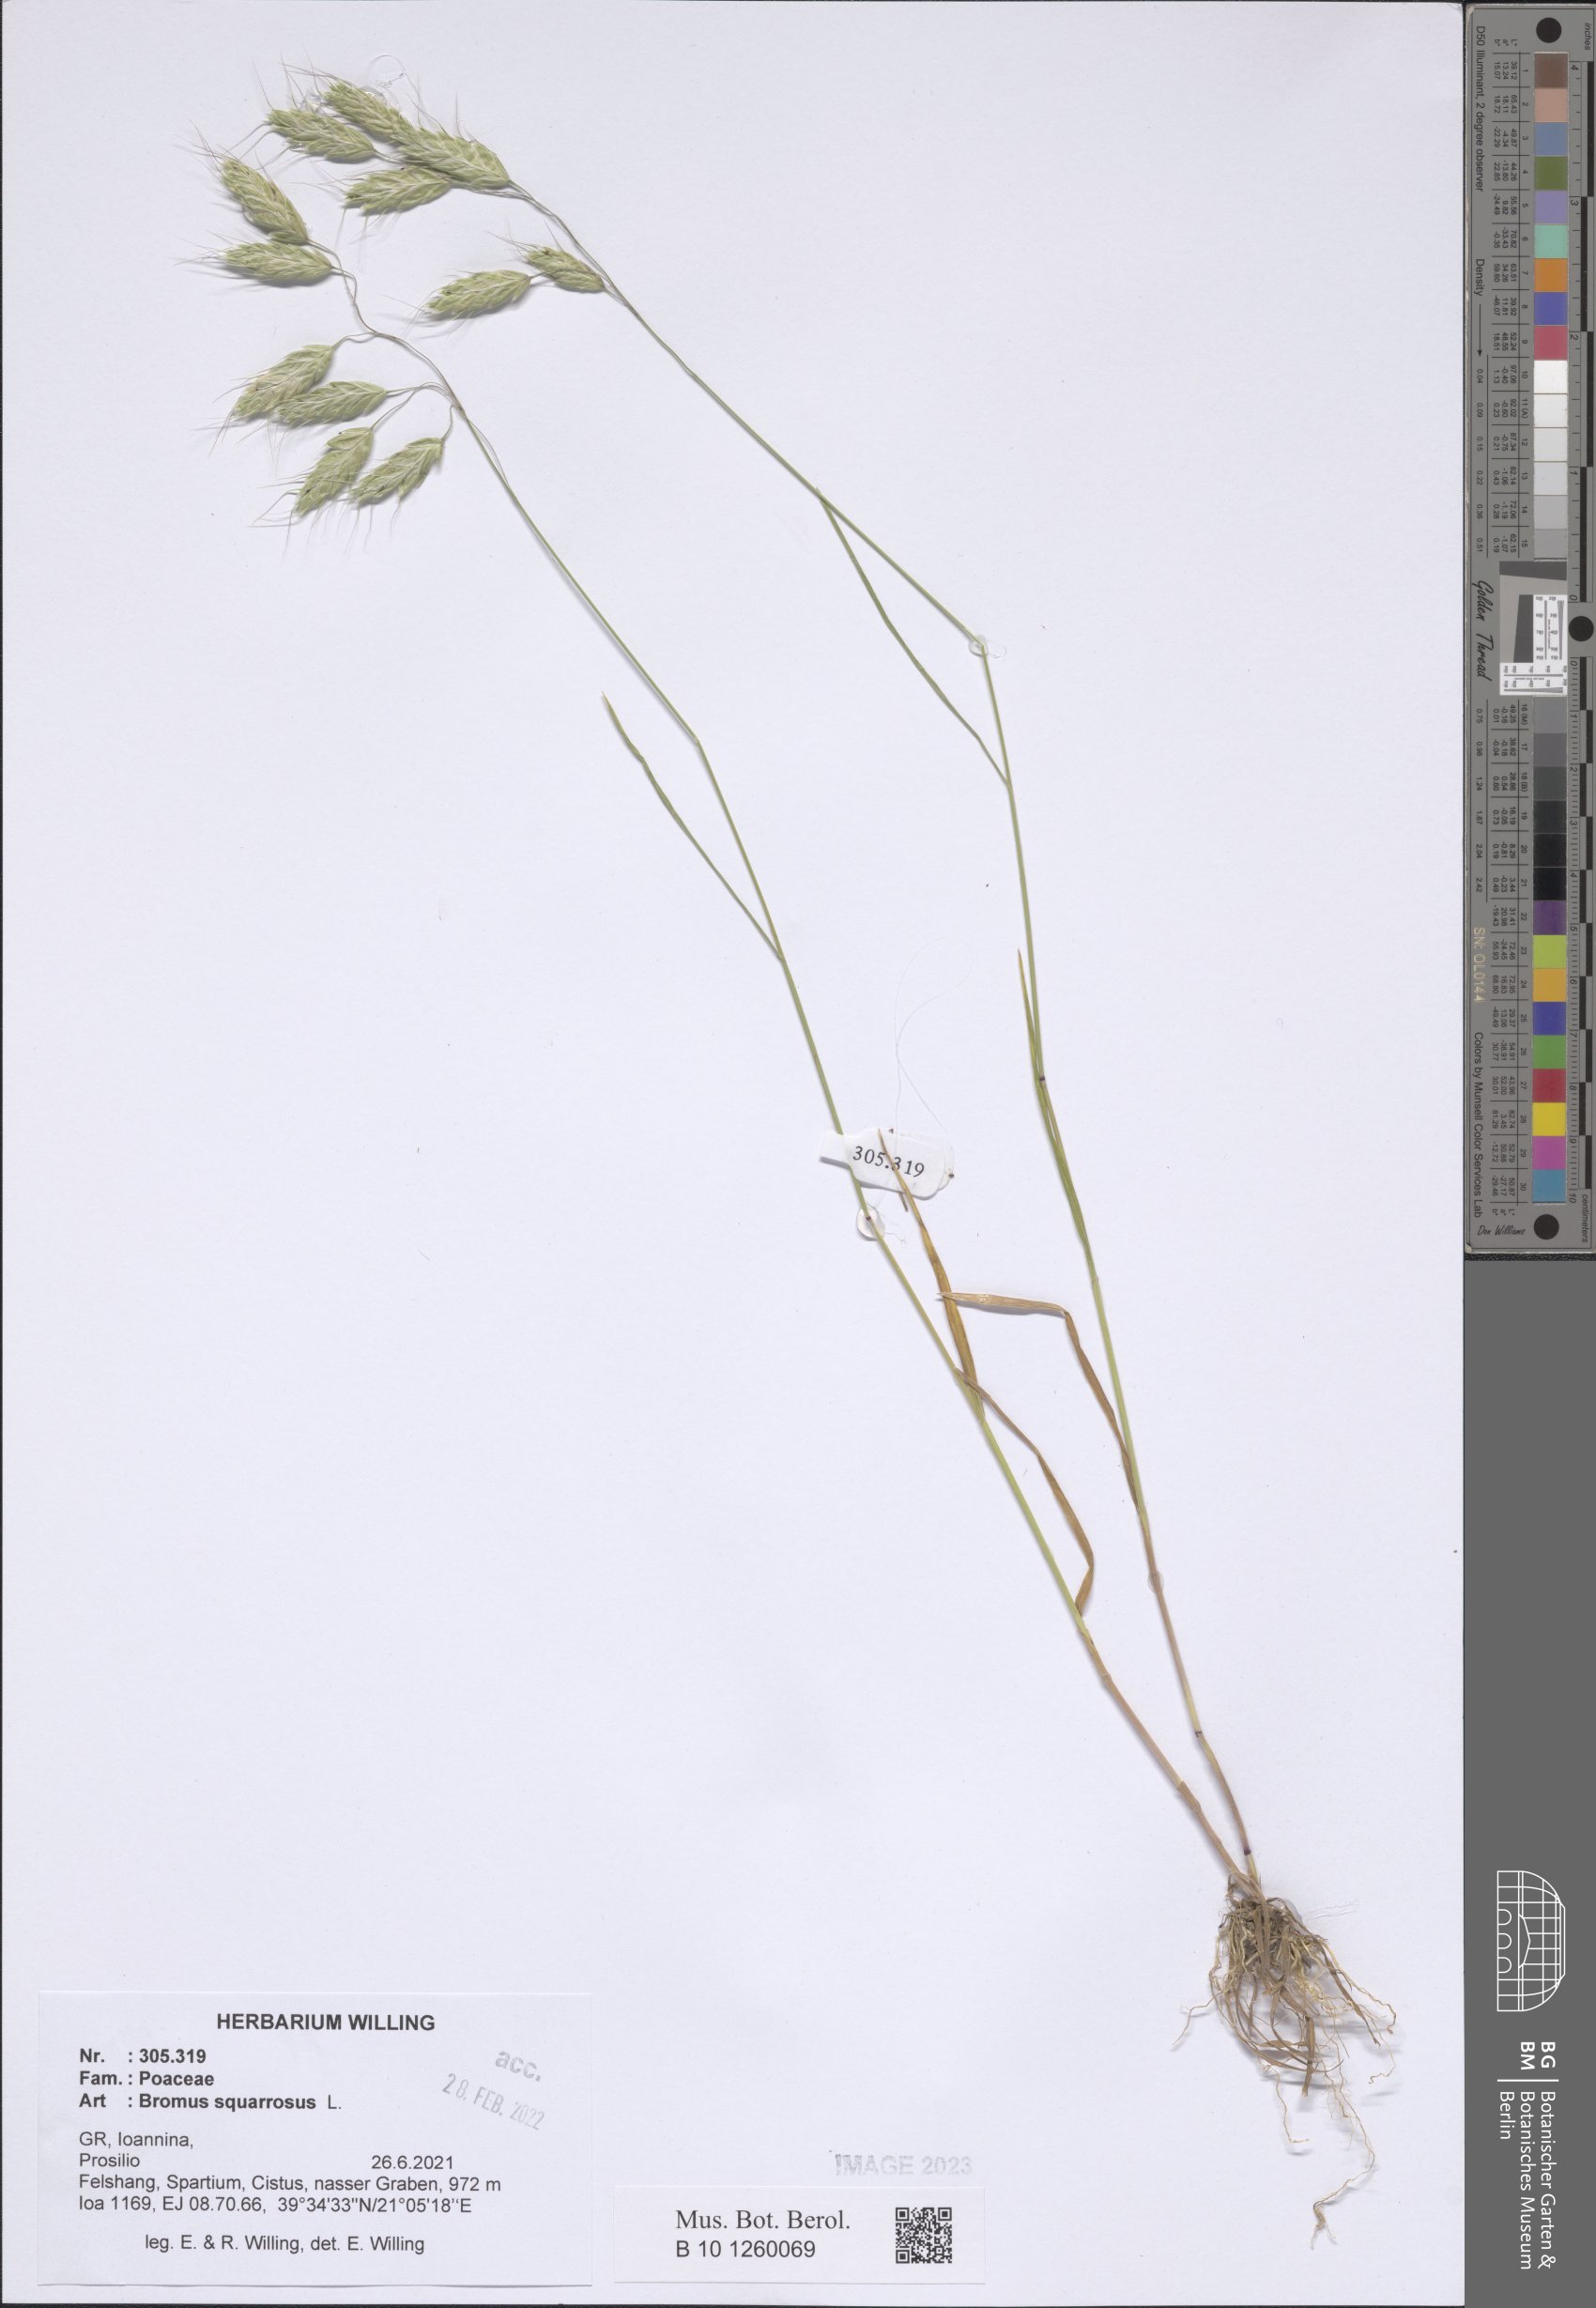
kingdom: Plantae
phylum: Tracheophyta
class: Liliopsida
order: Poales
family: Poaceae
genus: Bromus
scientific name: Bromus squarrosus
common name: Corn brome
